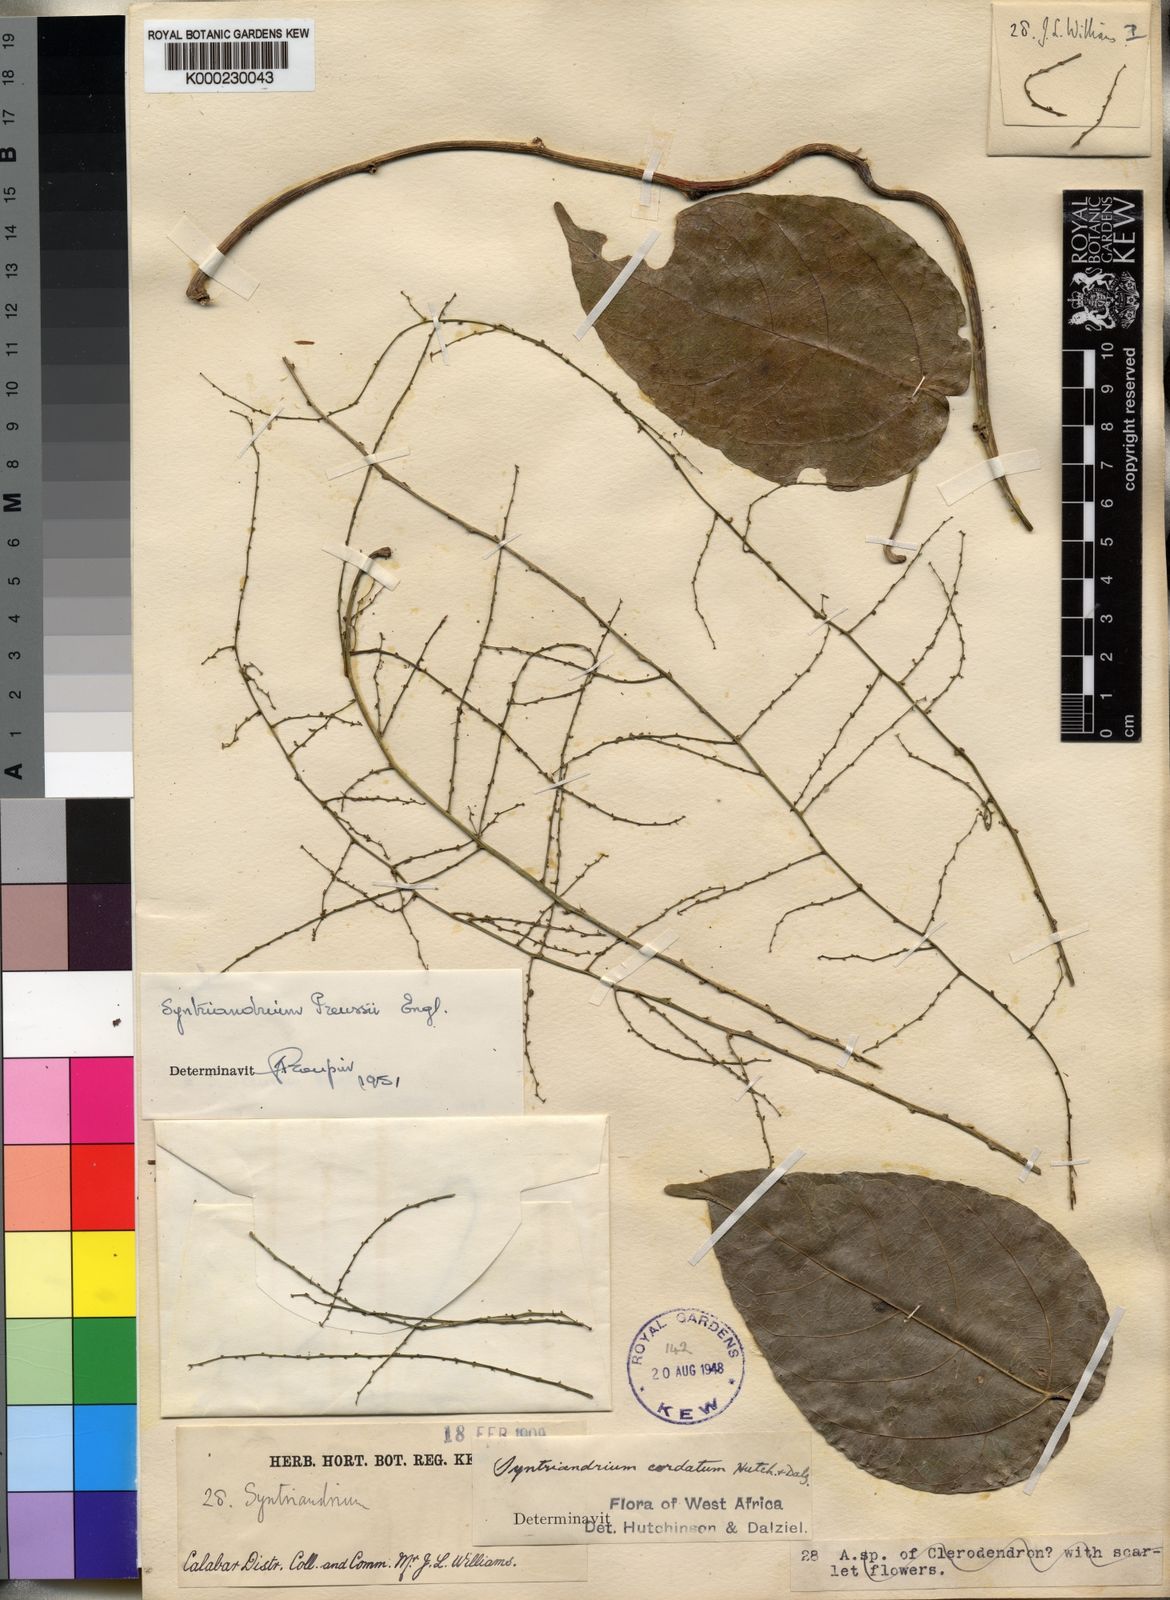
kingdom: Plantae
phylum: Tracheophyta
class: Magnoliopsida
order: Ranunculales
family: Menispermaceae
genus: Syntriandrium
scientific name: Syntriandrium preussii
